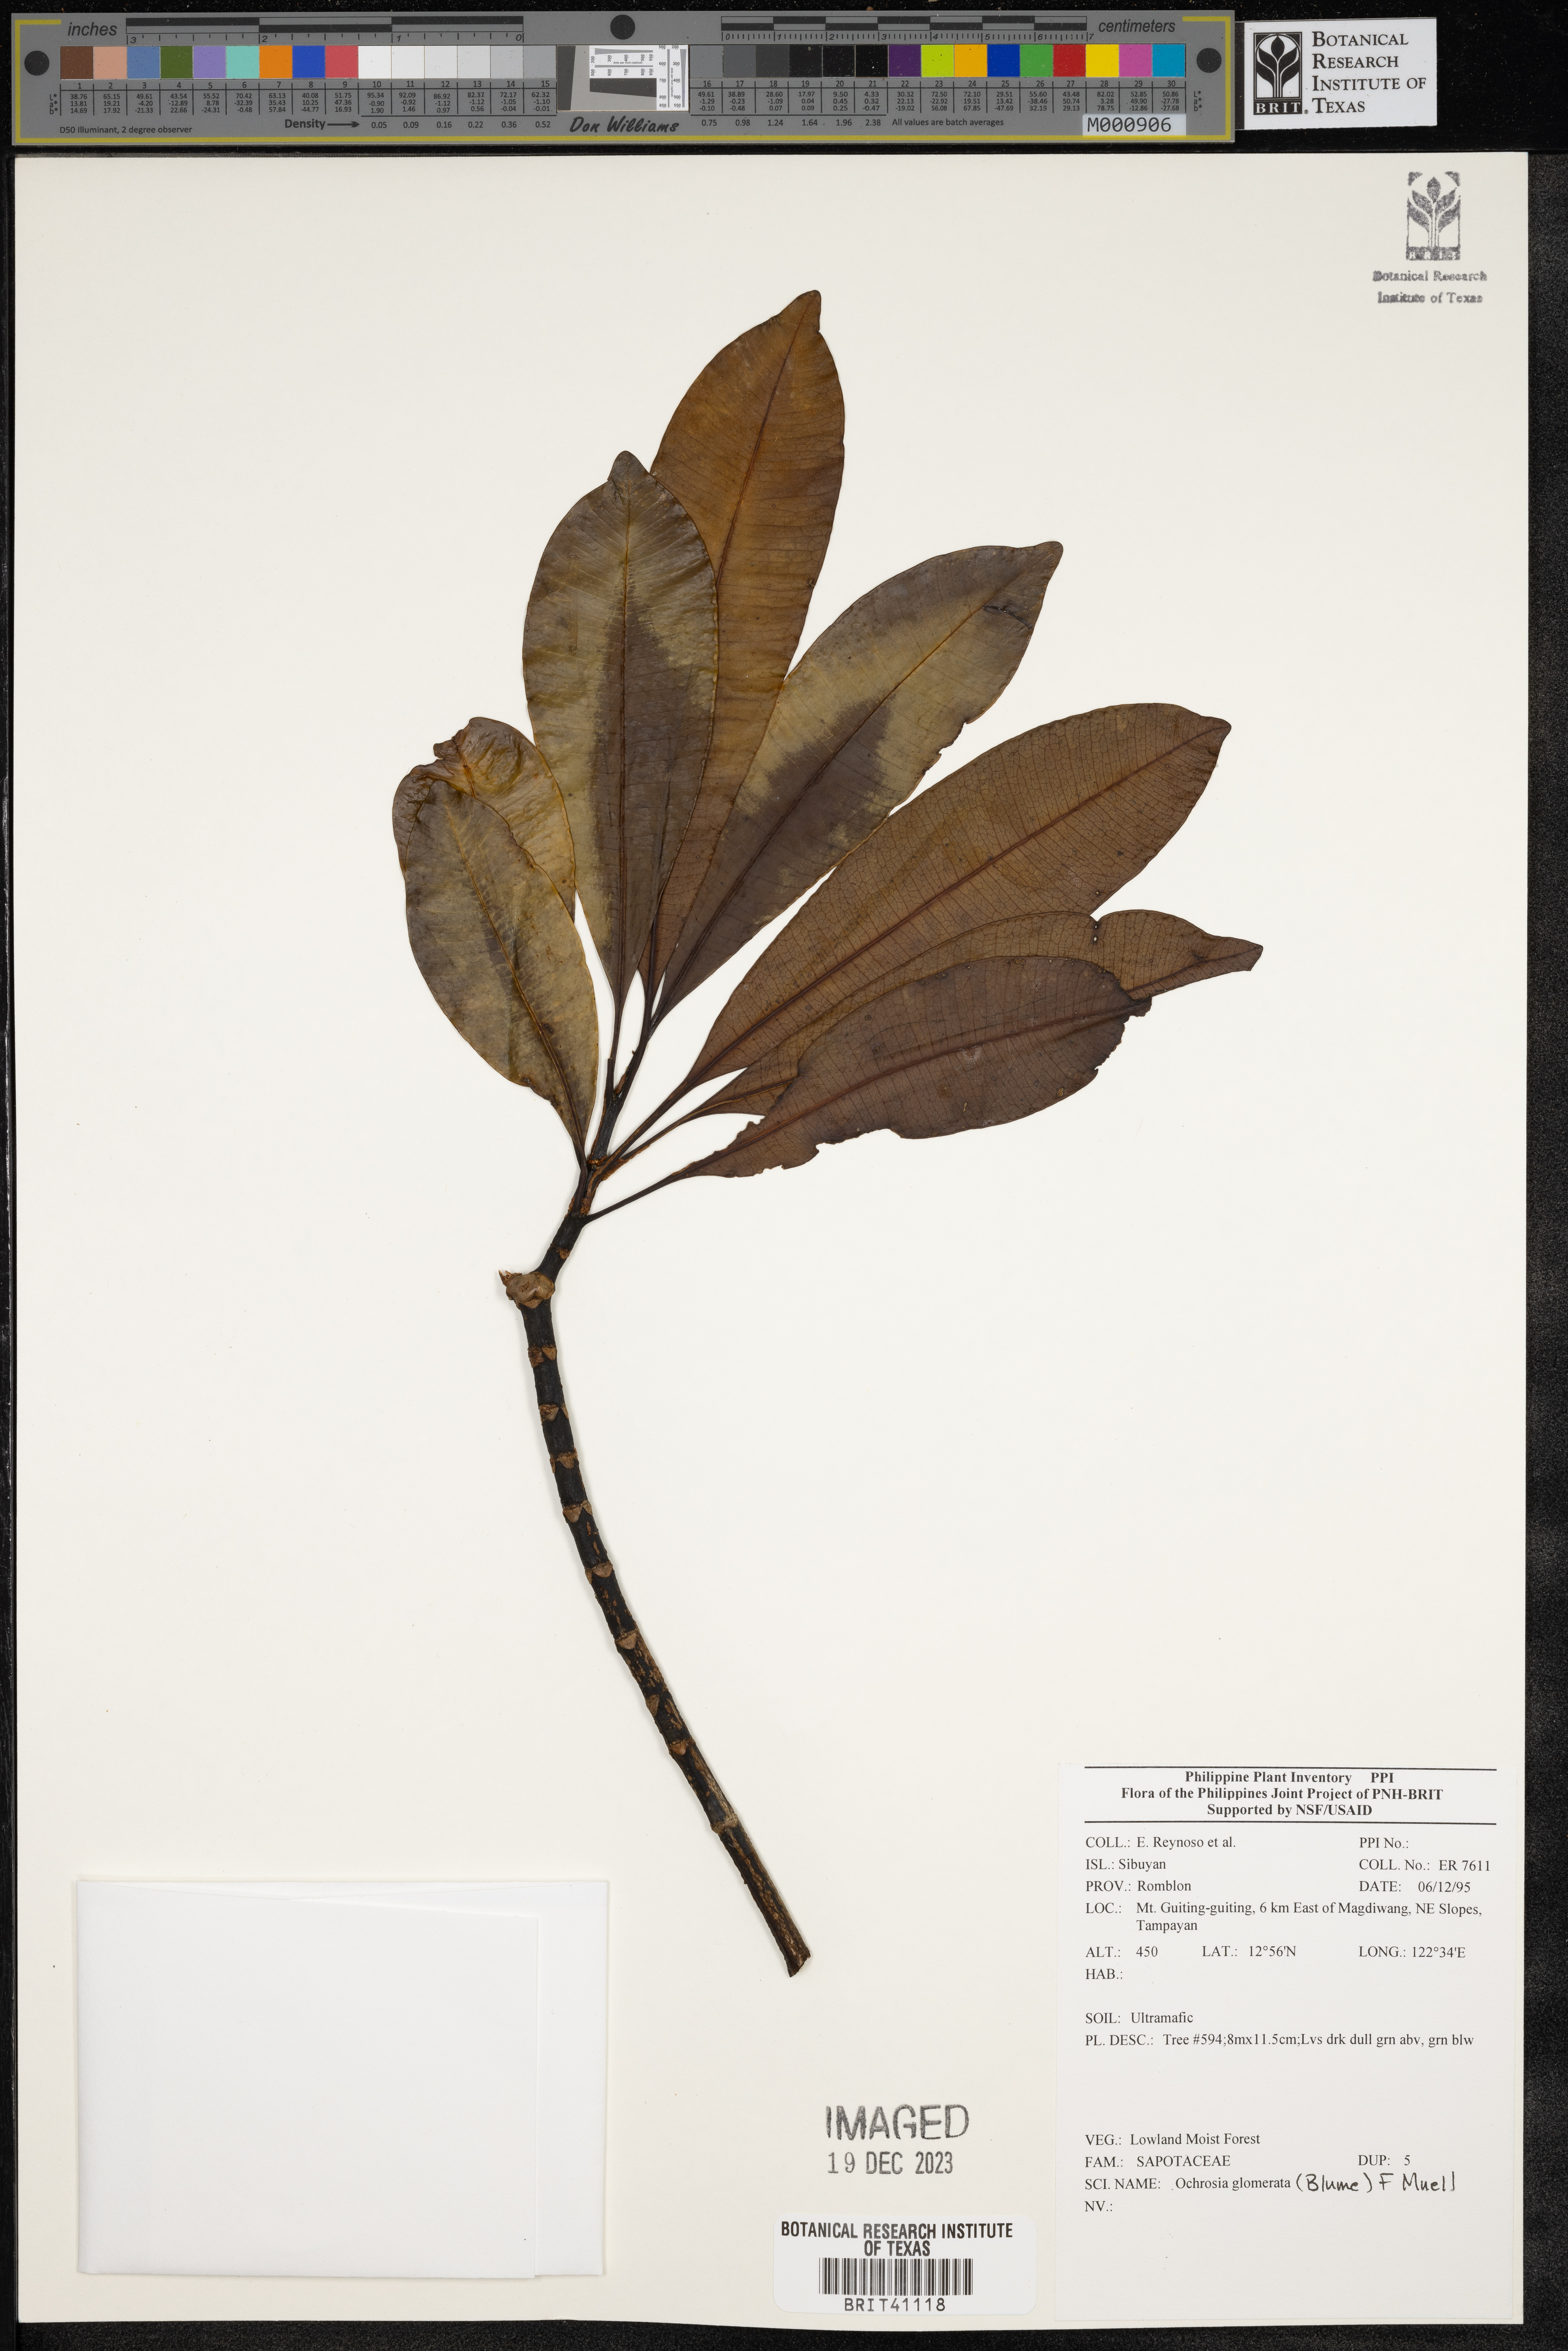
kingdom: Plantae
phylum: Tracheophyta
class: Magnoliopsida
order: Gentianales
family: Apocynaceae
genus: Ochrosia
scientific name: Ochrosia glomerata
